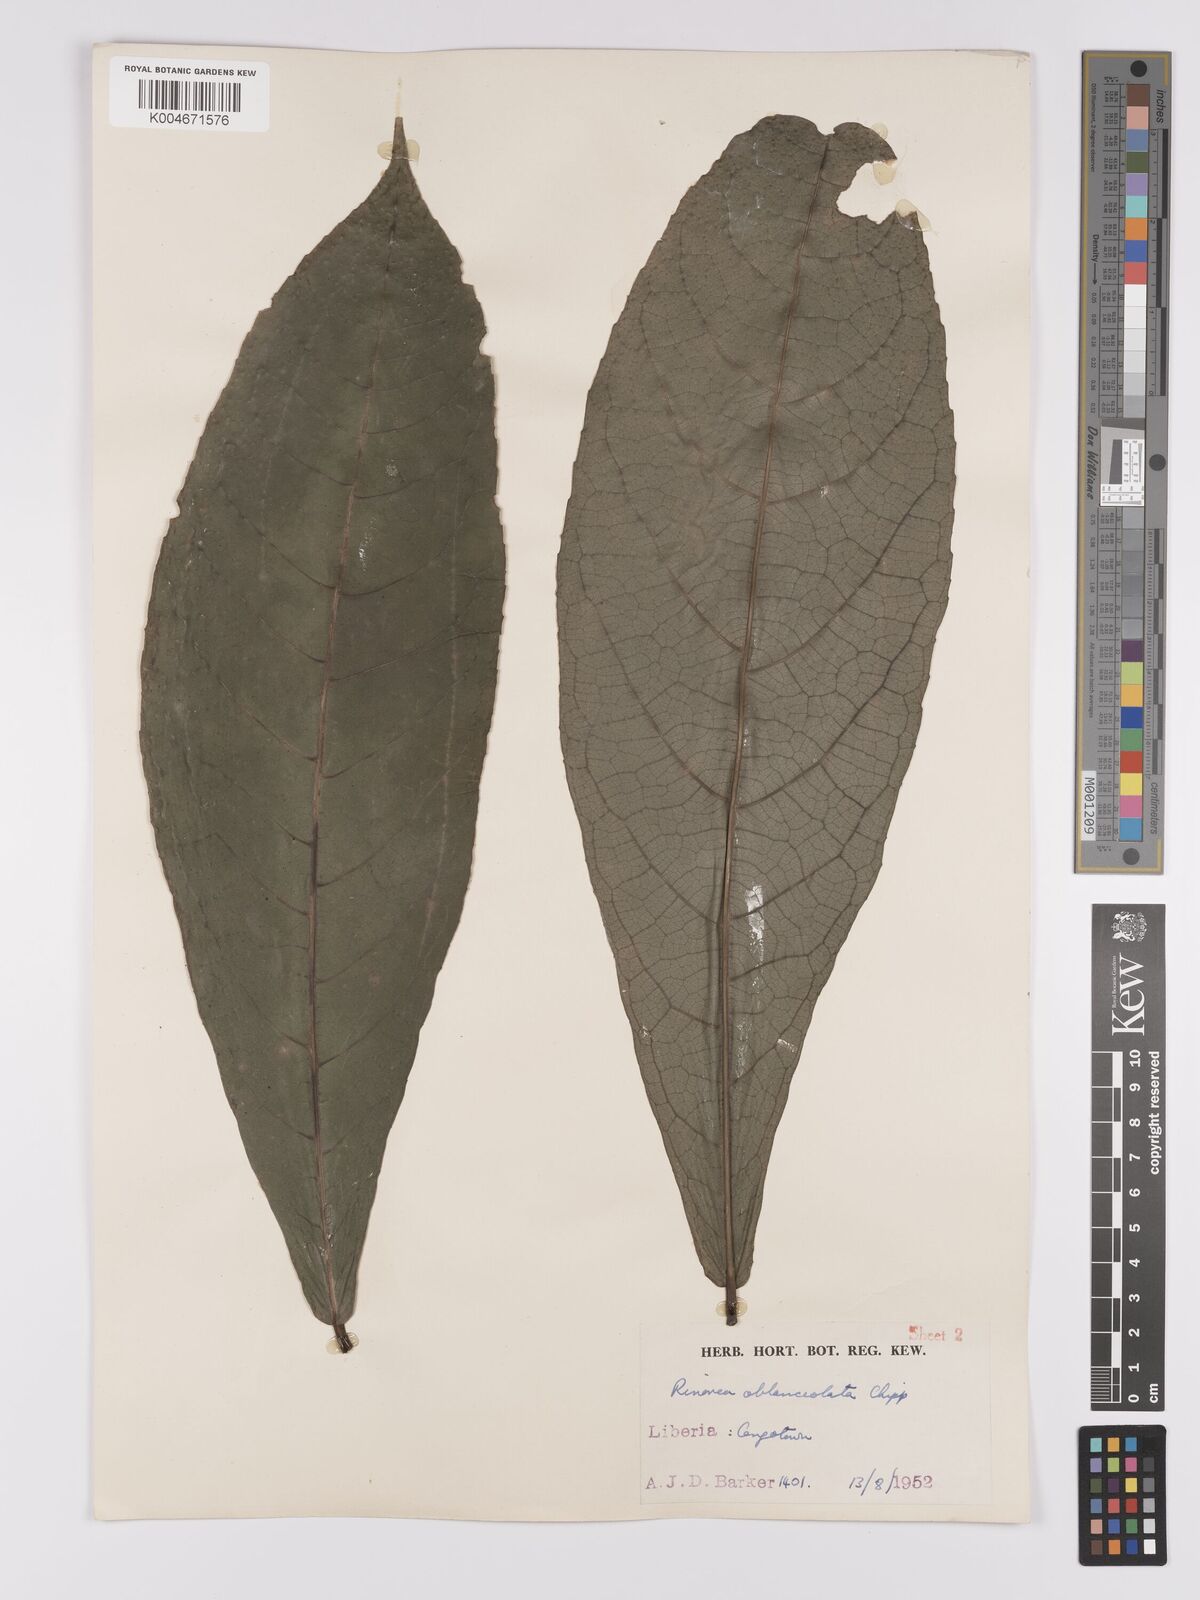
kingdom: Plantae
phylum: Tracheophyta
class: Magnoliopsida
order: Malpighiales
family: Violaceae
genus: Rinorea
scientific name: Rinorea oblanceolata
